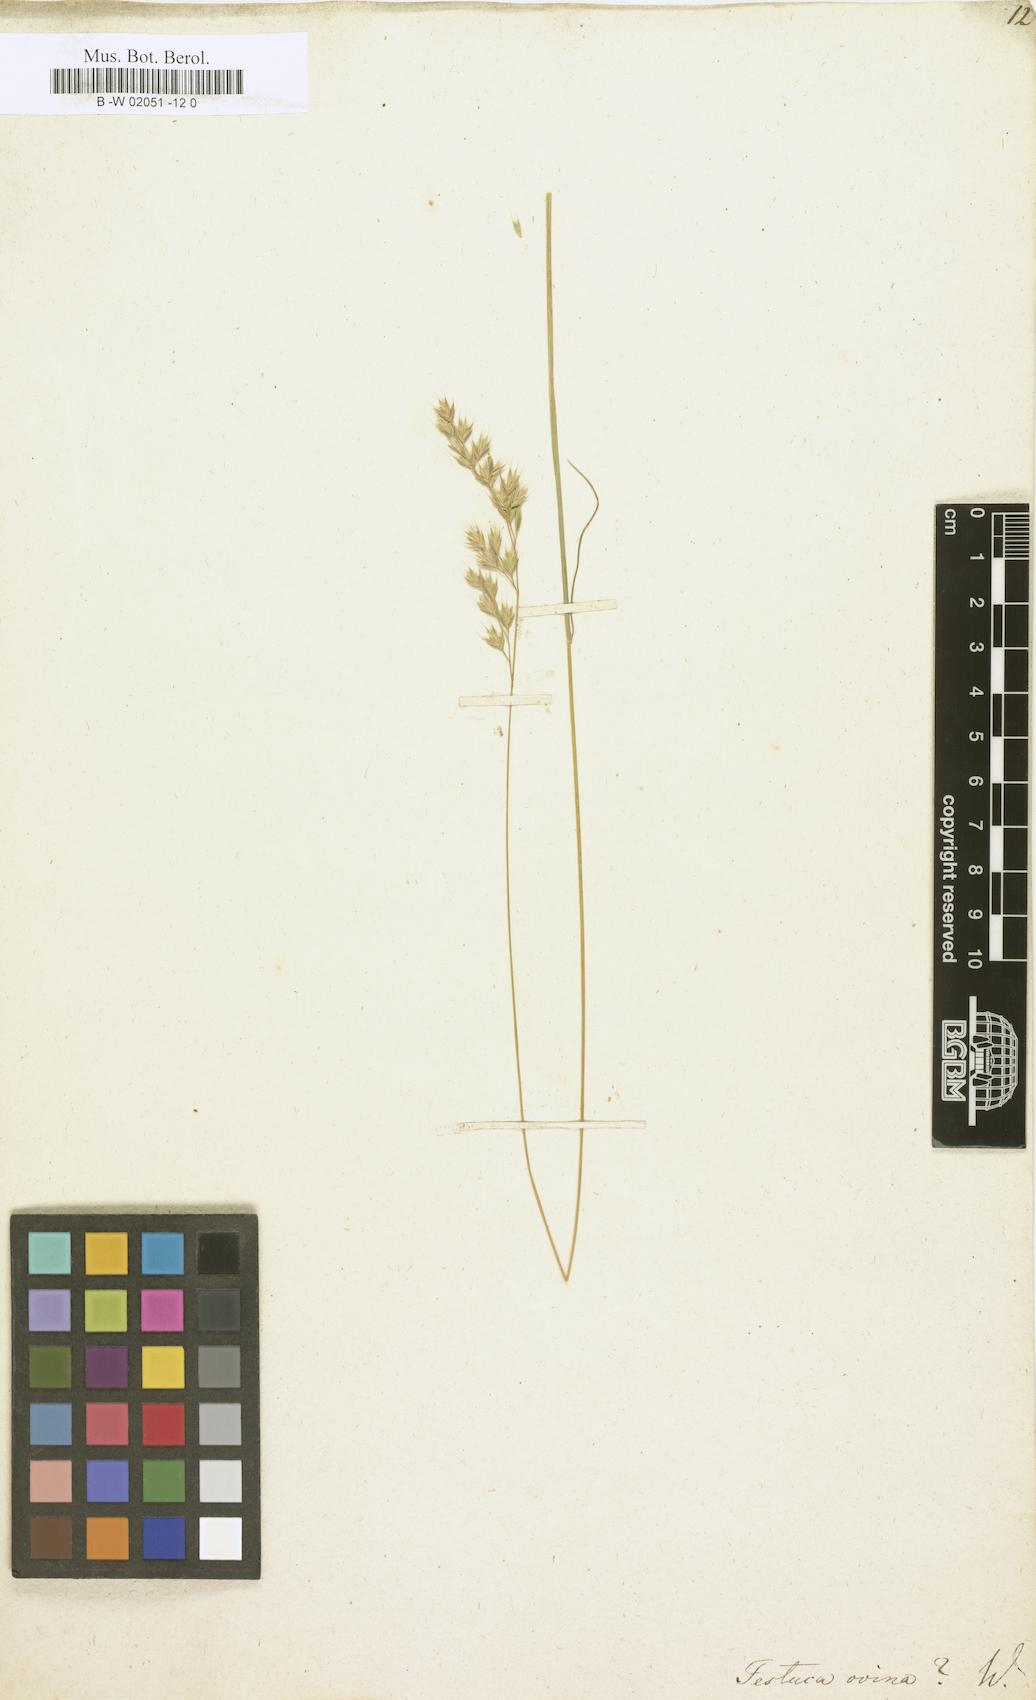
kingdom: Plantae
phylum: Tracheophyta
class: Liliopsida
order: Poales
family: Poaceae
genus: Festuca
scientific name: Festuca ovina
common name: Sheep fescue
